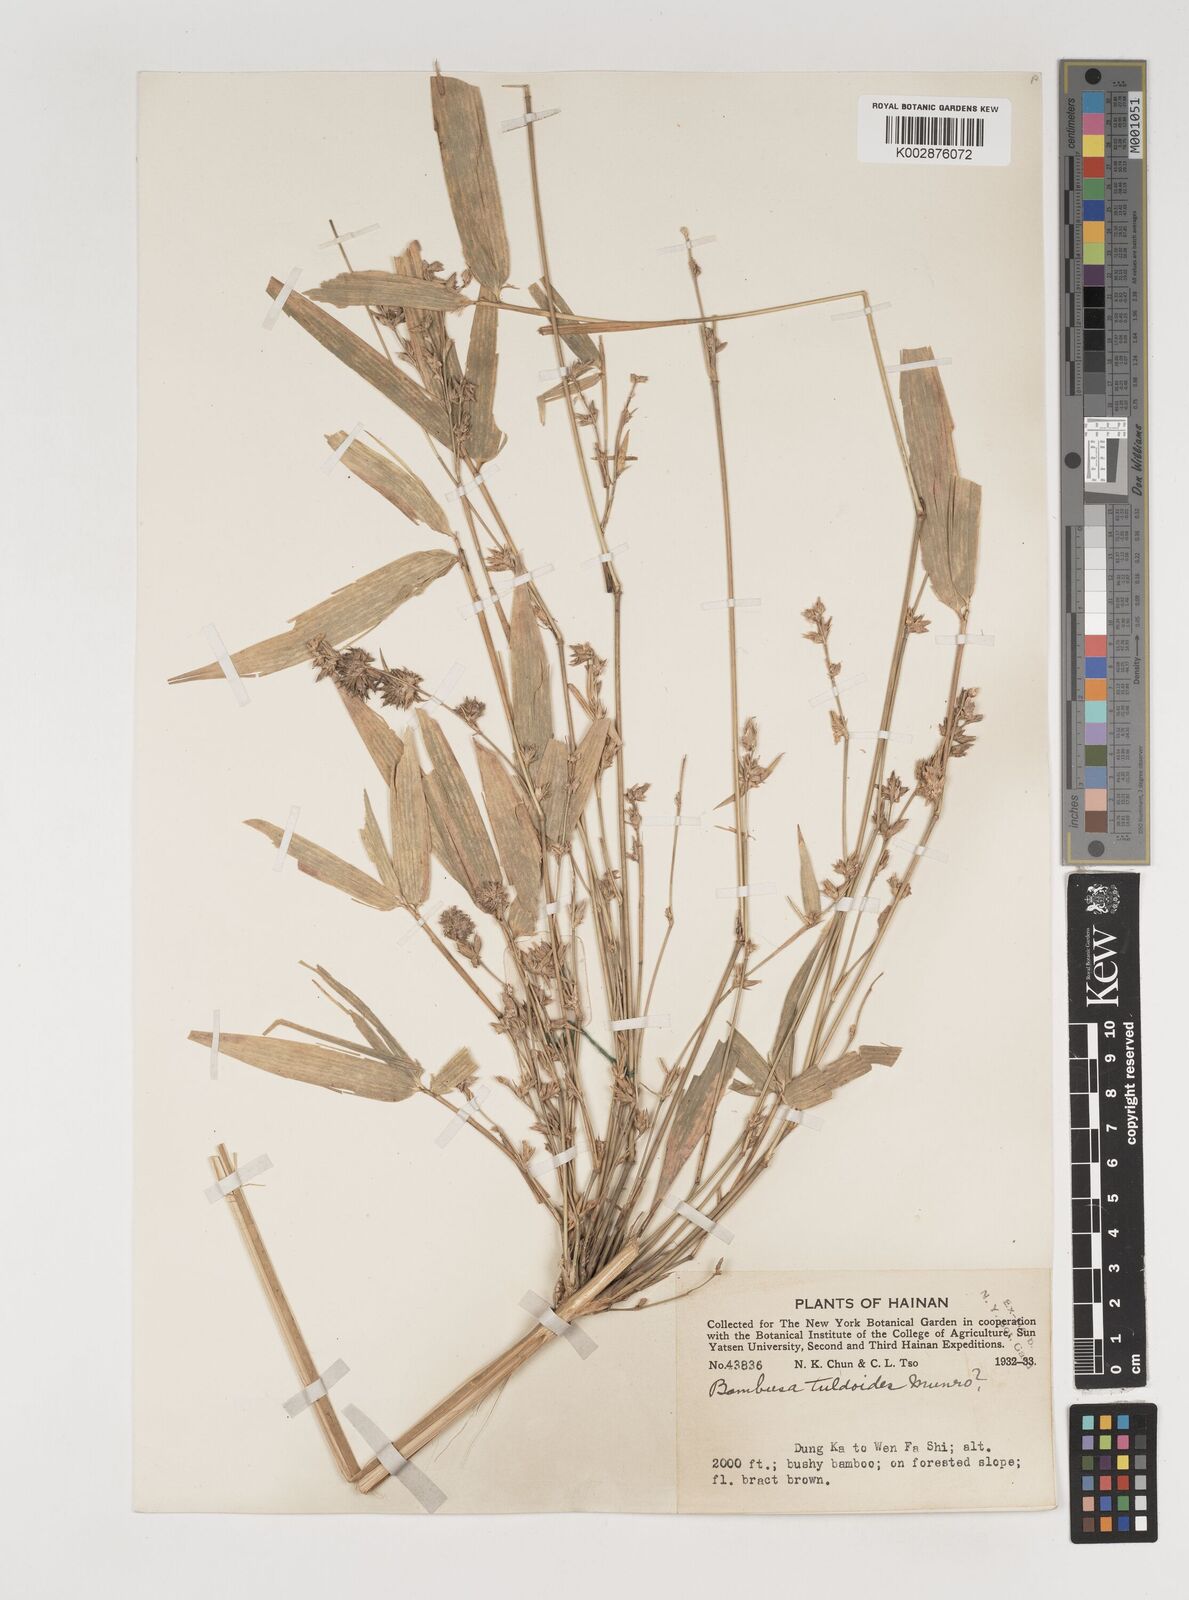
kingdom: Plantae
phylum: Tracheophyta
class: Liliopsida
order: Poales
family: Poaceae
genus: Bambusa
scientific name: Bambusa
